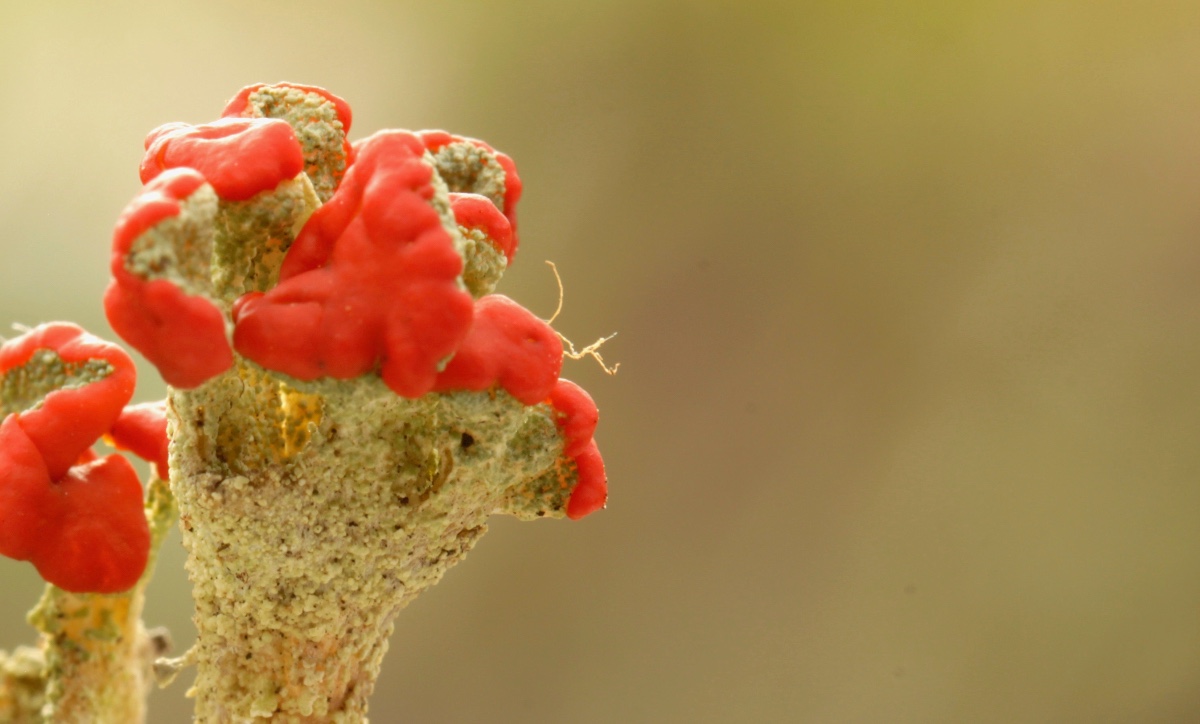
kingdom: Fungi
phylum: Ascomycota
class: Lecanoromycetes
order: Lecanorales
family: Cladoniaceae
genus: Cladonia
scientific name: Cladonia diversa
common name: rød bægerlav
